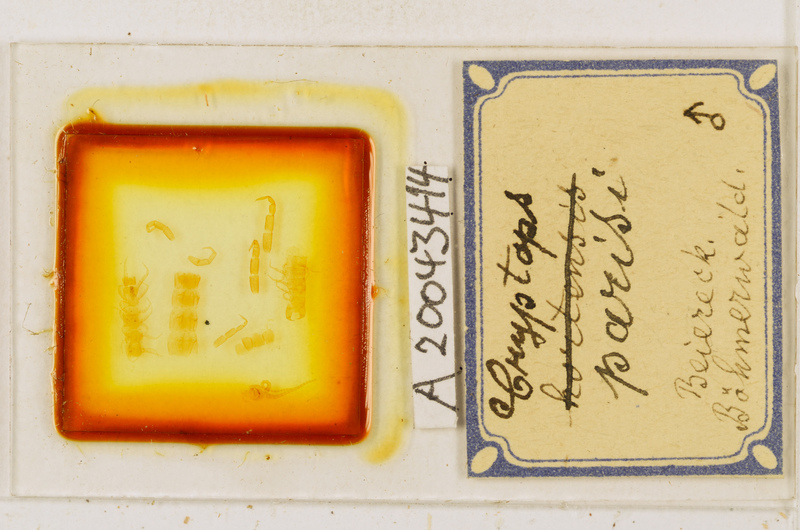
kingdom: Animalia
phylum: Arthropoda
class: Chilopoda
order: Scolopendromorpha
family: Cryptopidae
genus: Cryptops
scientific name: Cryptops parisi
